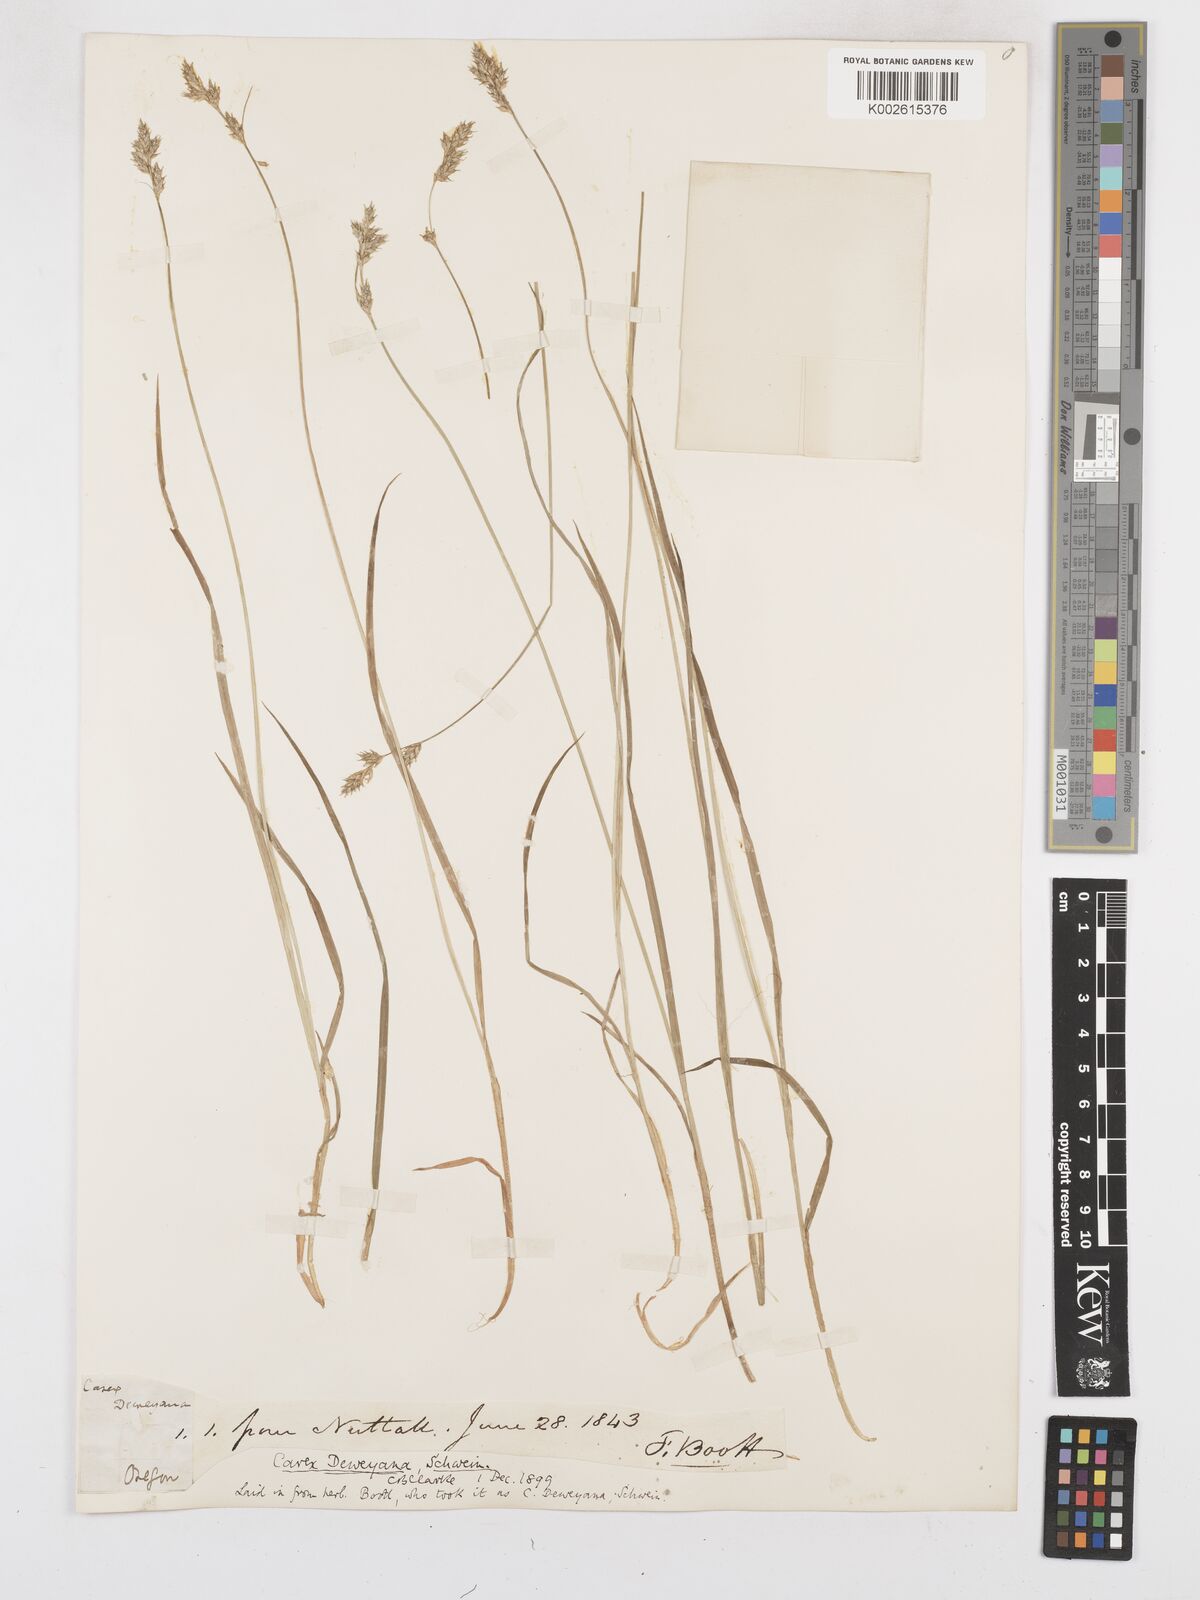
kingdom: Plantae
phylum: Tracheophyta
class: Liliopsida
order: Poales
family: Cyperaceae
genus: Carex
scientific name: Carex deweyana
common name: Dewey's sedge
